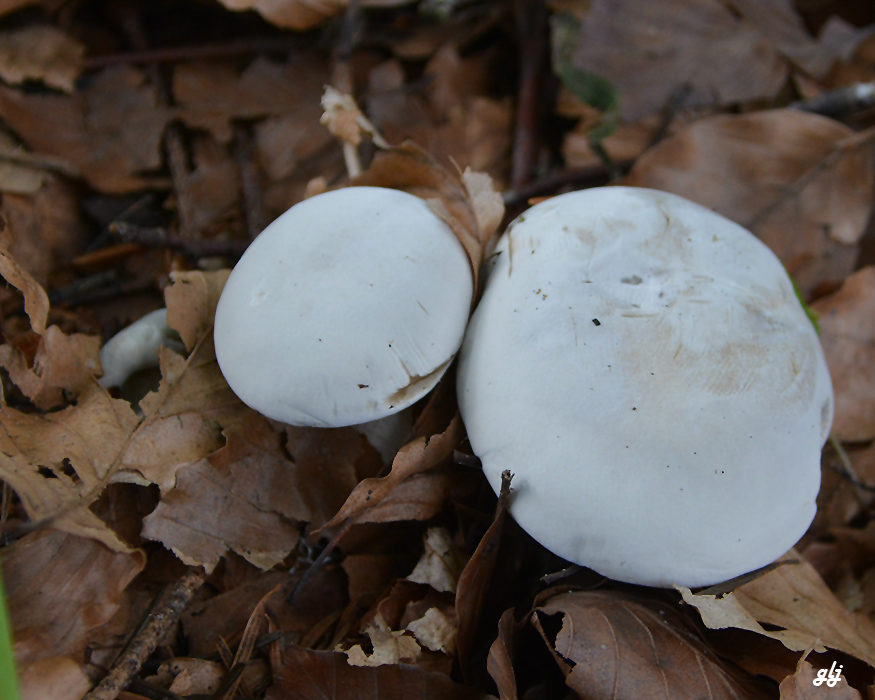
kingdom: Fungi
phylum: Basidiomycota
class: Agaricomycetes
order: Agaricales
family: Entolomataceae
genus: Clitopilus
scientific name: Clitopilus prunulus
